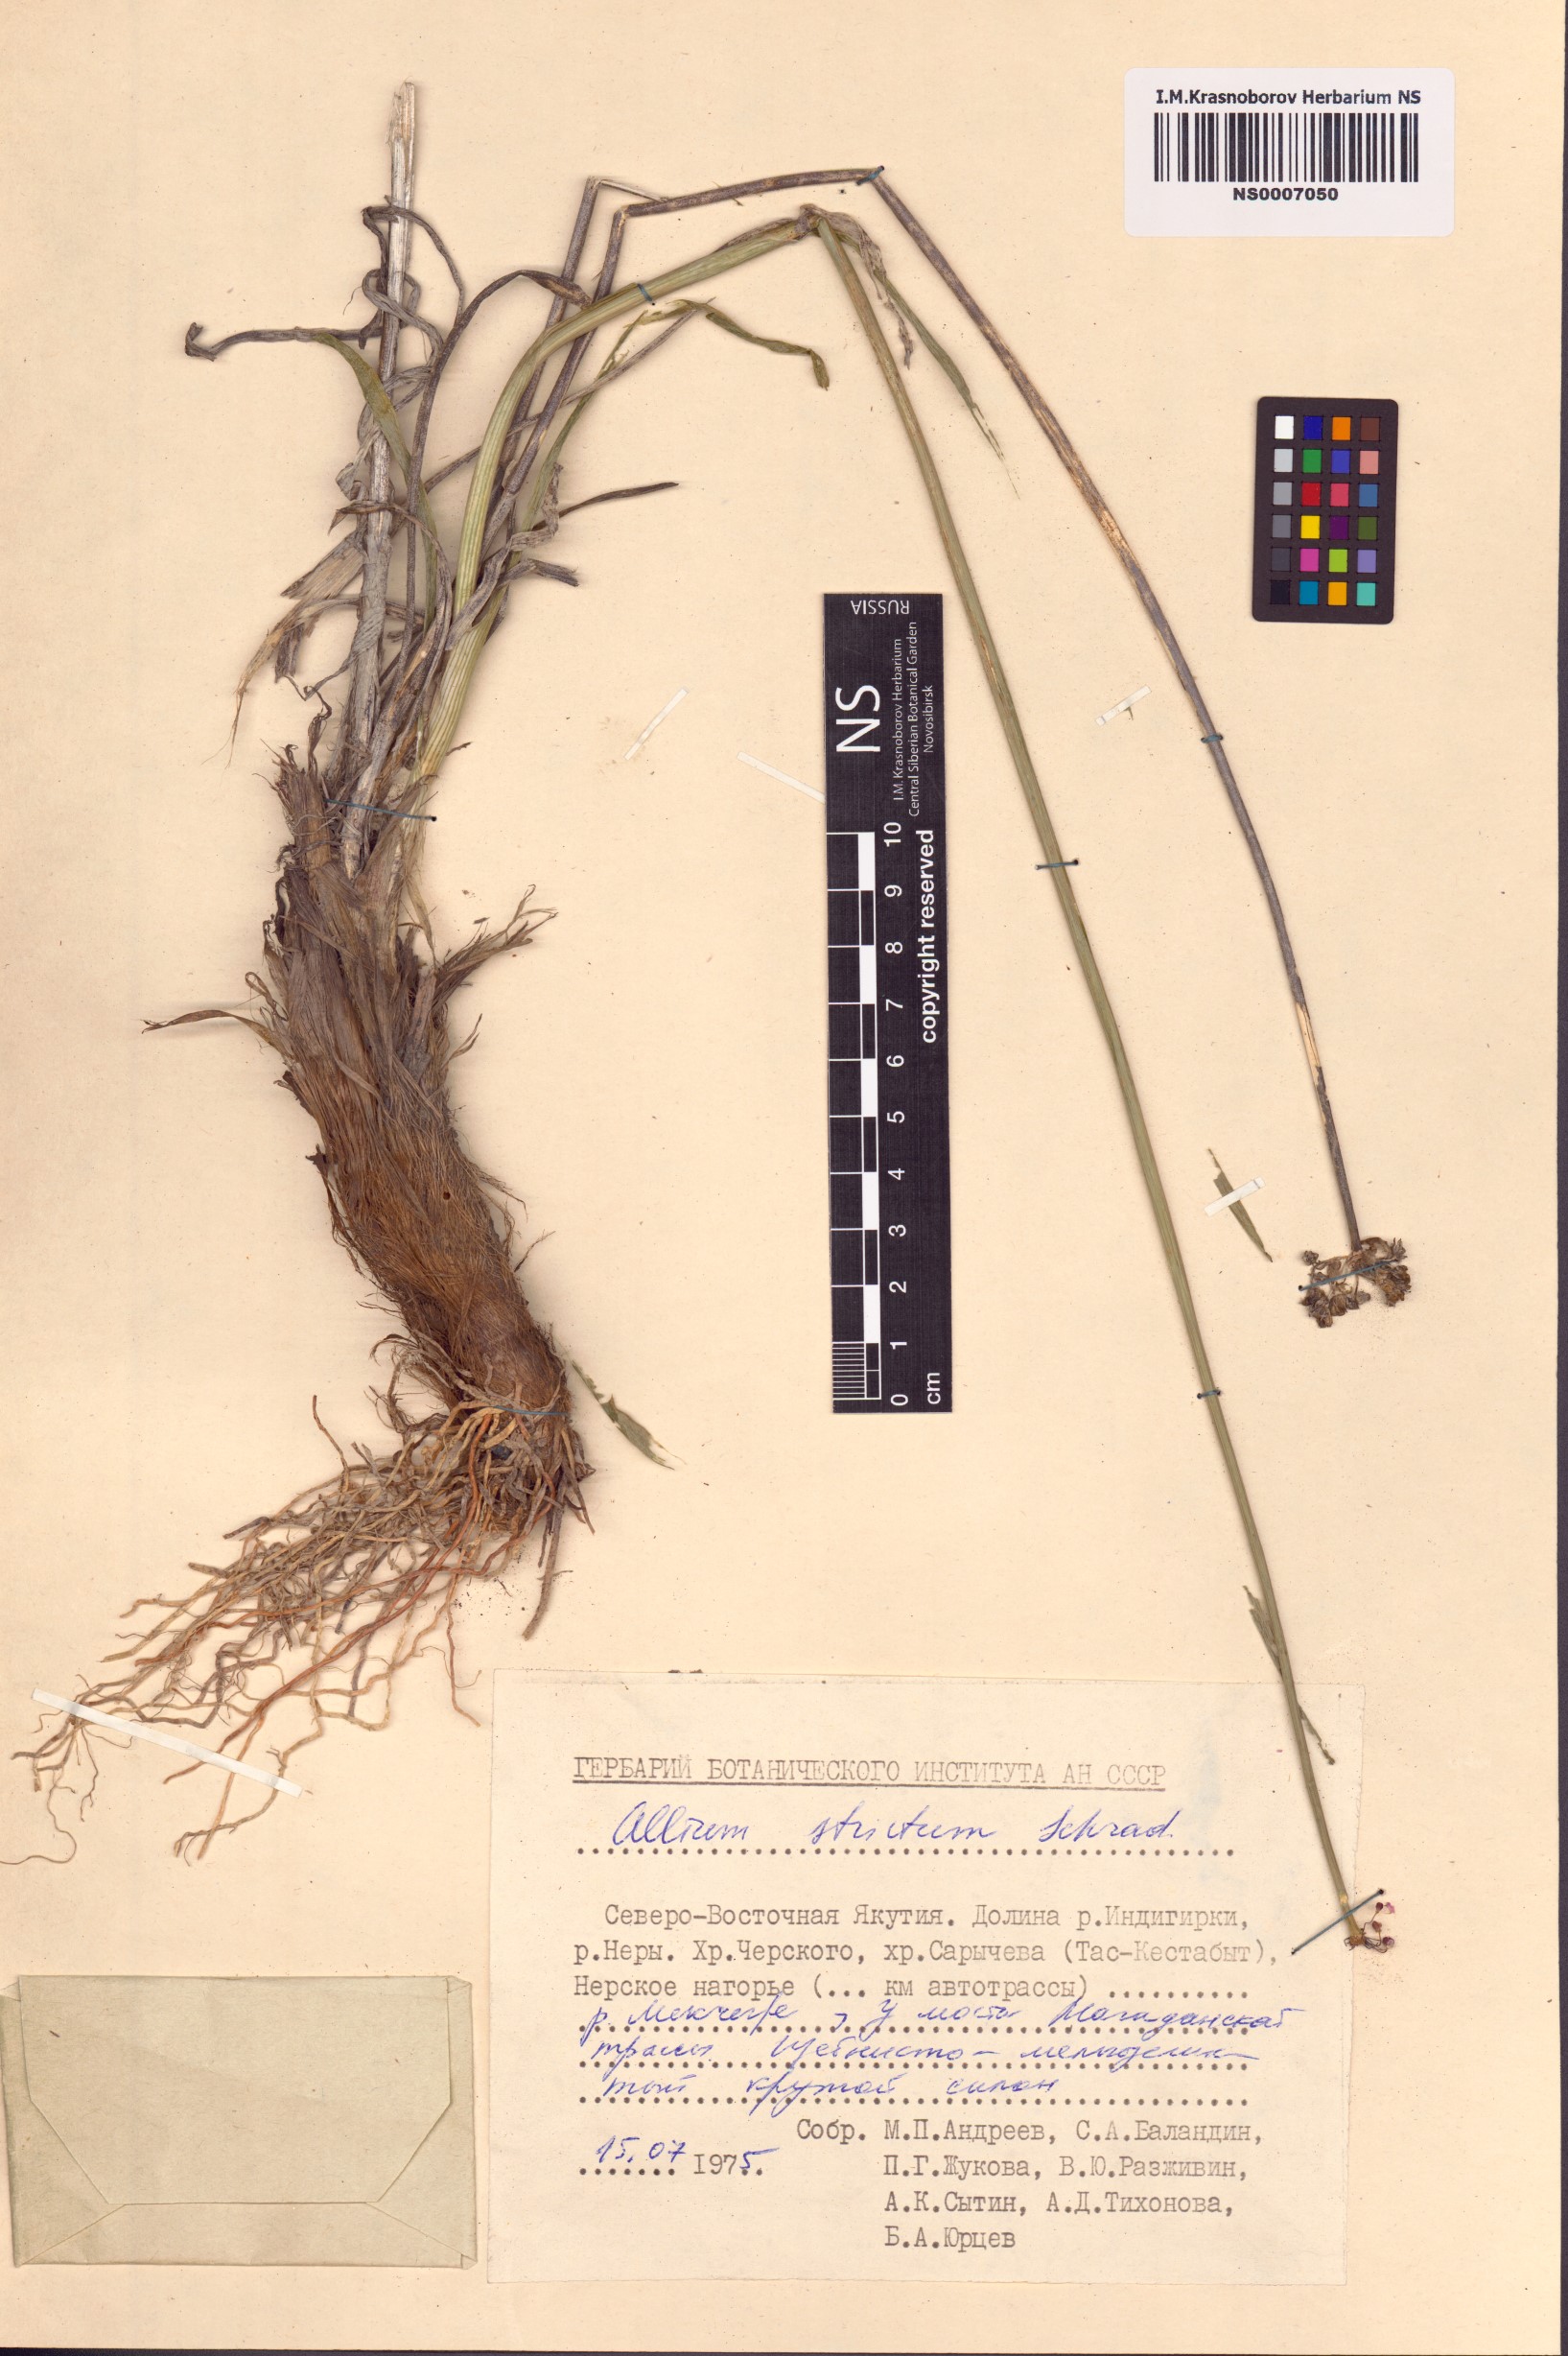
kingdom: Plantae
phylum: Tracheophyta
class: Liliopsida
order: Asparagales
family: Amaryllidaceae
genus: Allium
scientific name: Allium strictum
